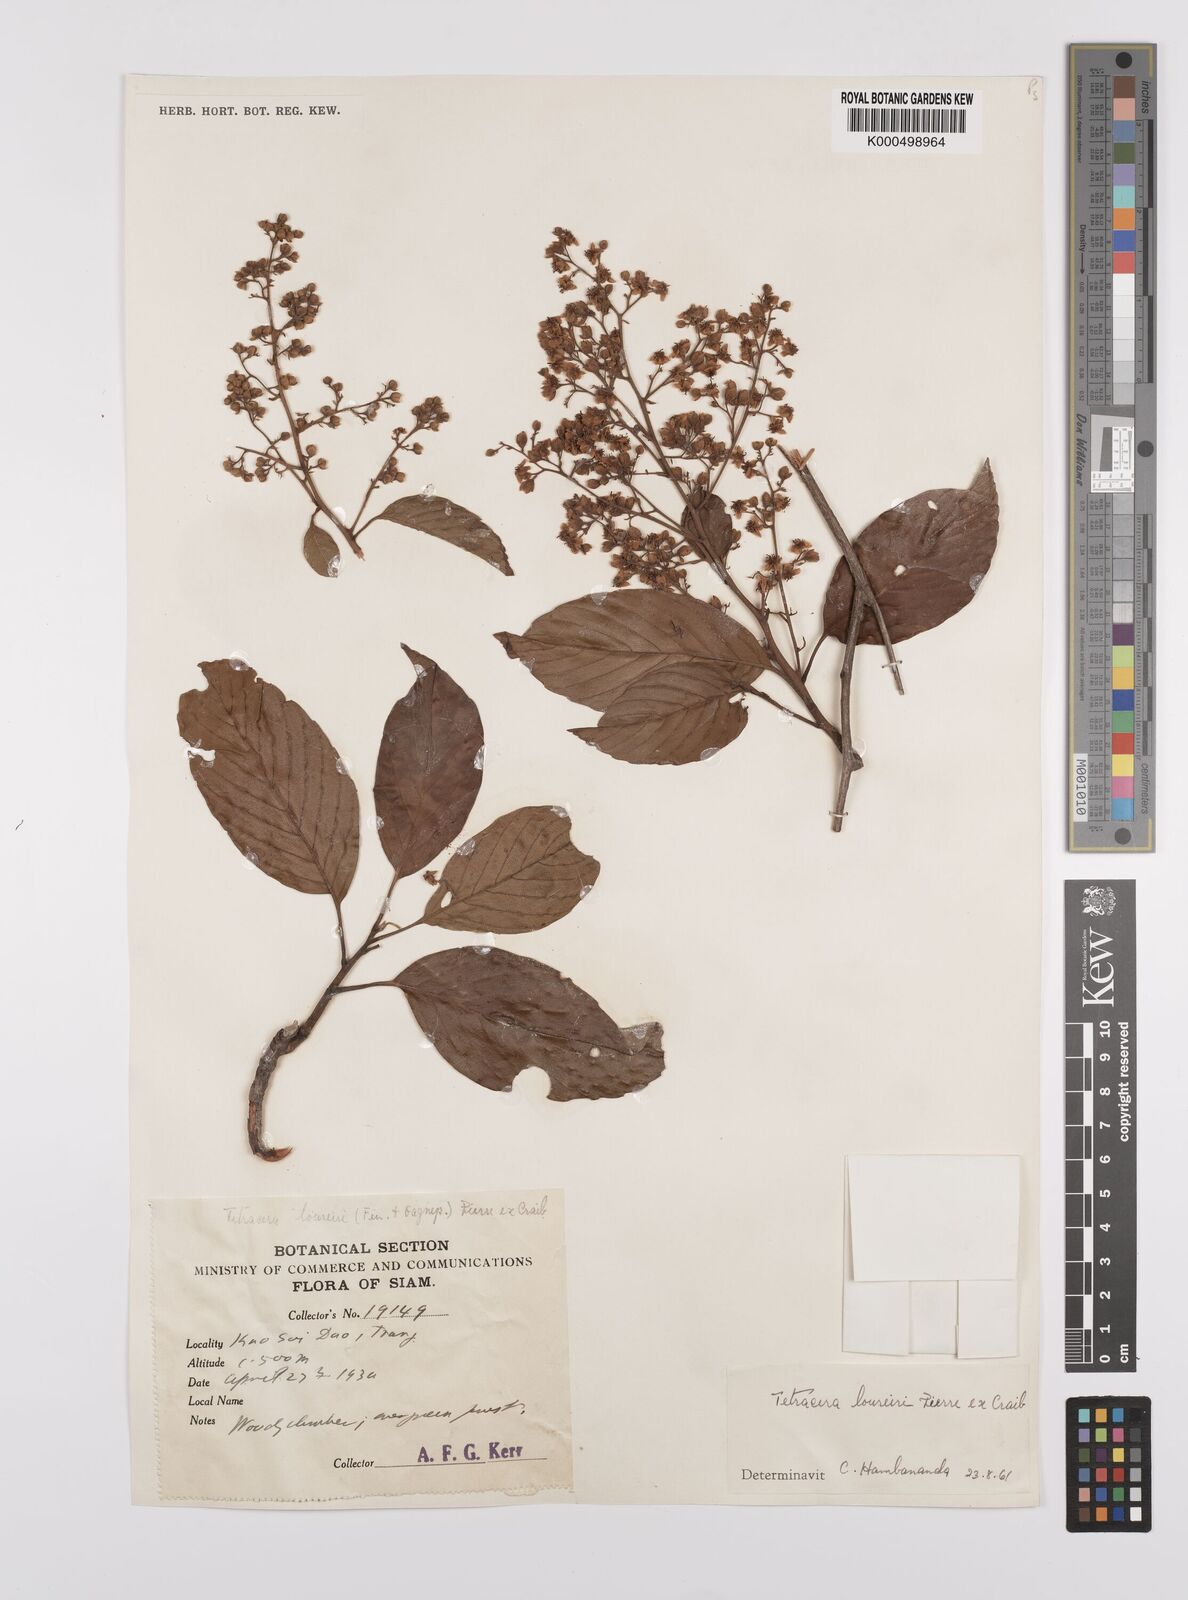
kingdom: Plantae
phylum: Tracheophyta
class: Magnoliopsida
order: Dilleniales
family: Dilleniaceae
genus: Tetracera
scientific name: Tetracera scandens
